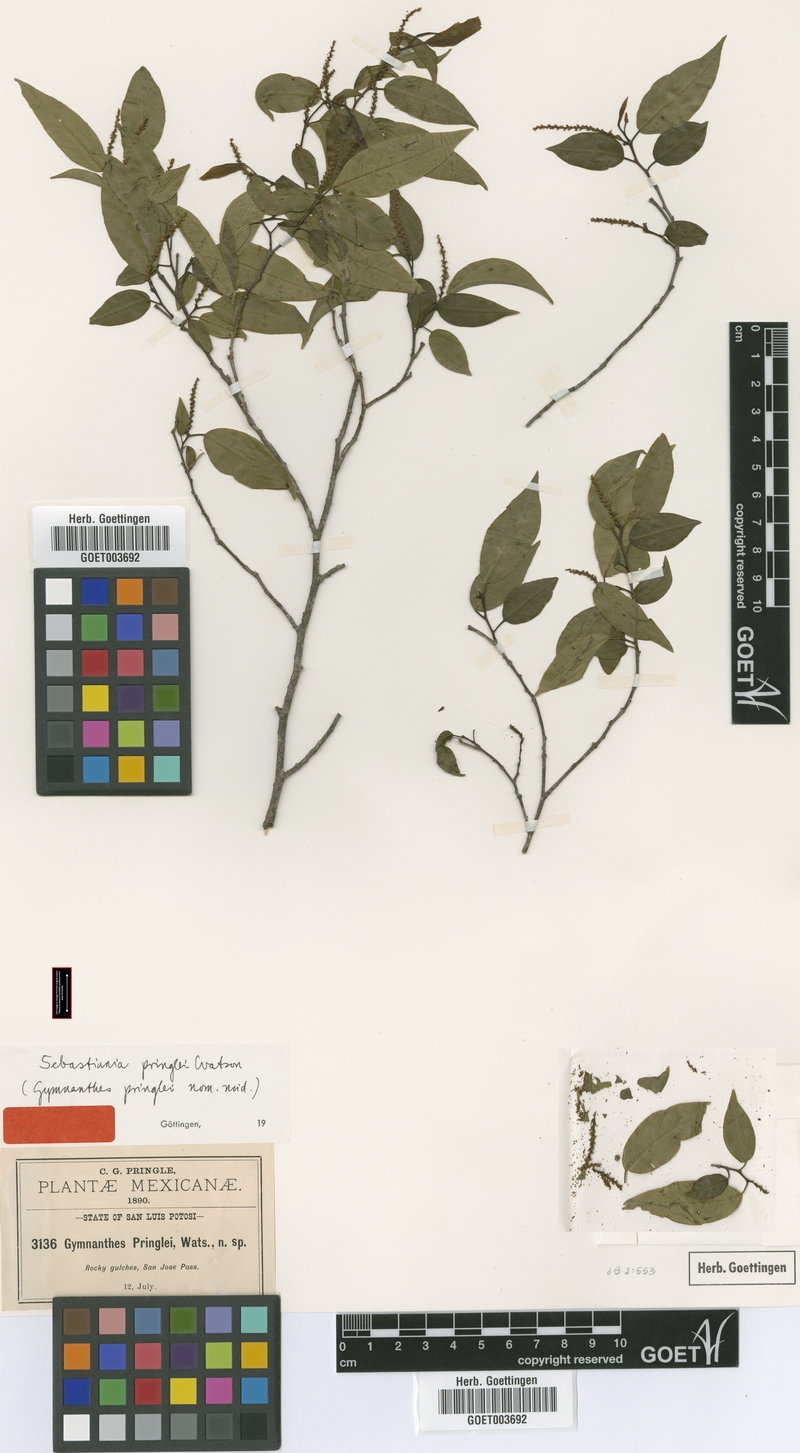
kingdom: Plantae
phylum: Tracheophyta
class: Magnoliopsida
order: Malpighiales
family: Euphorbiaceae
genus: Sebastiania
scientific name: Sebastiania pavoniana
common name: Mexican jumping-beans
